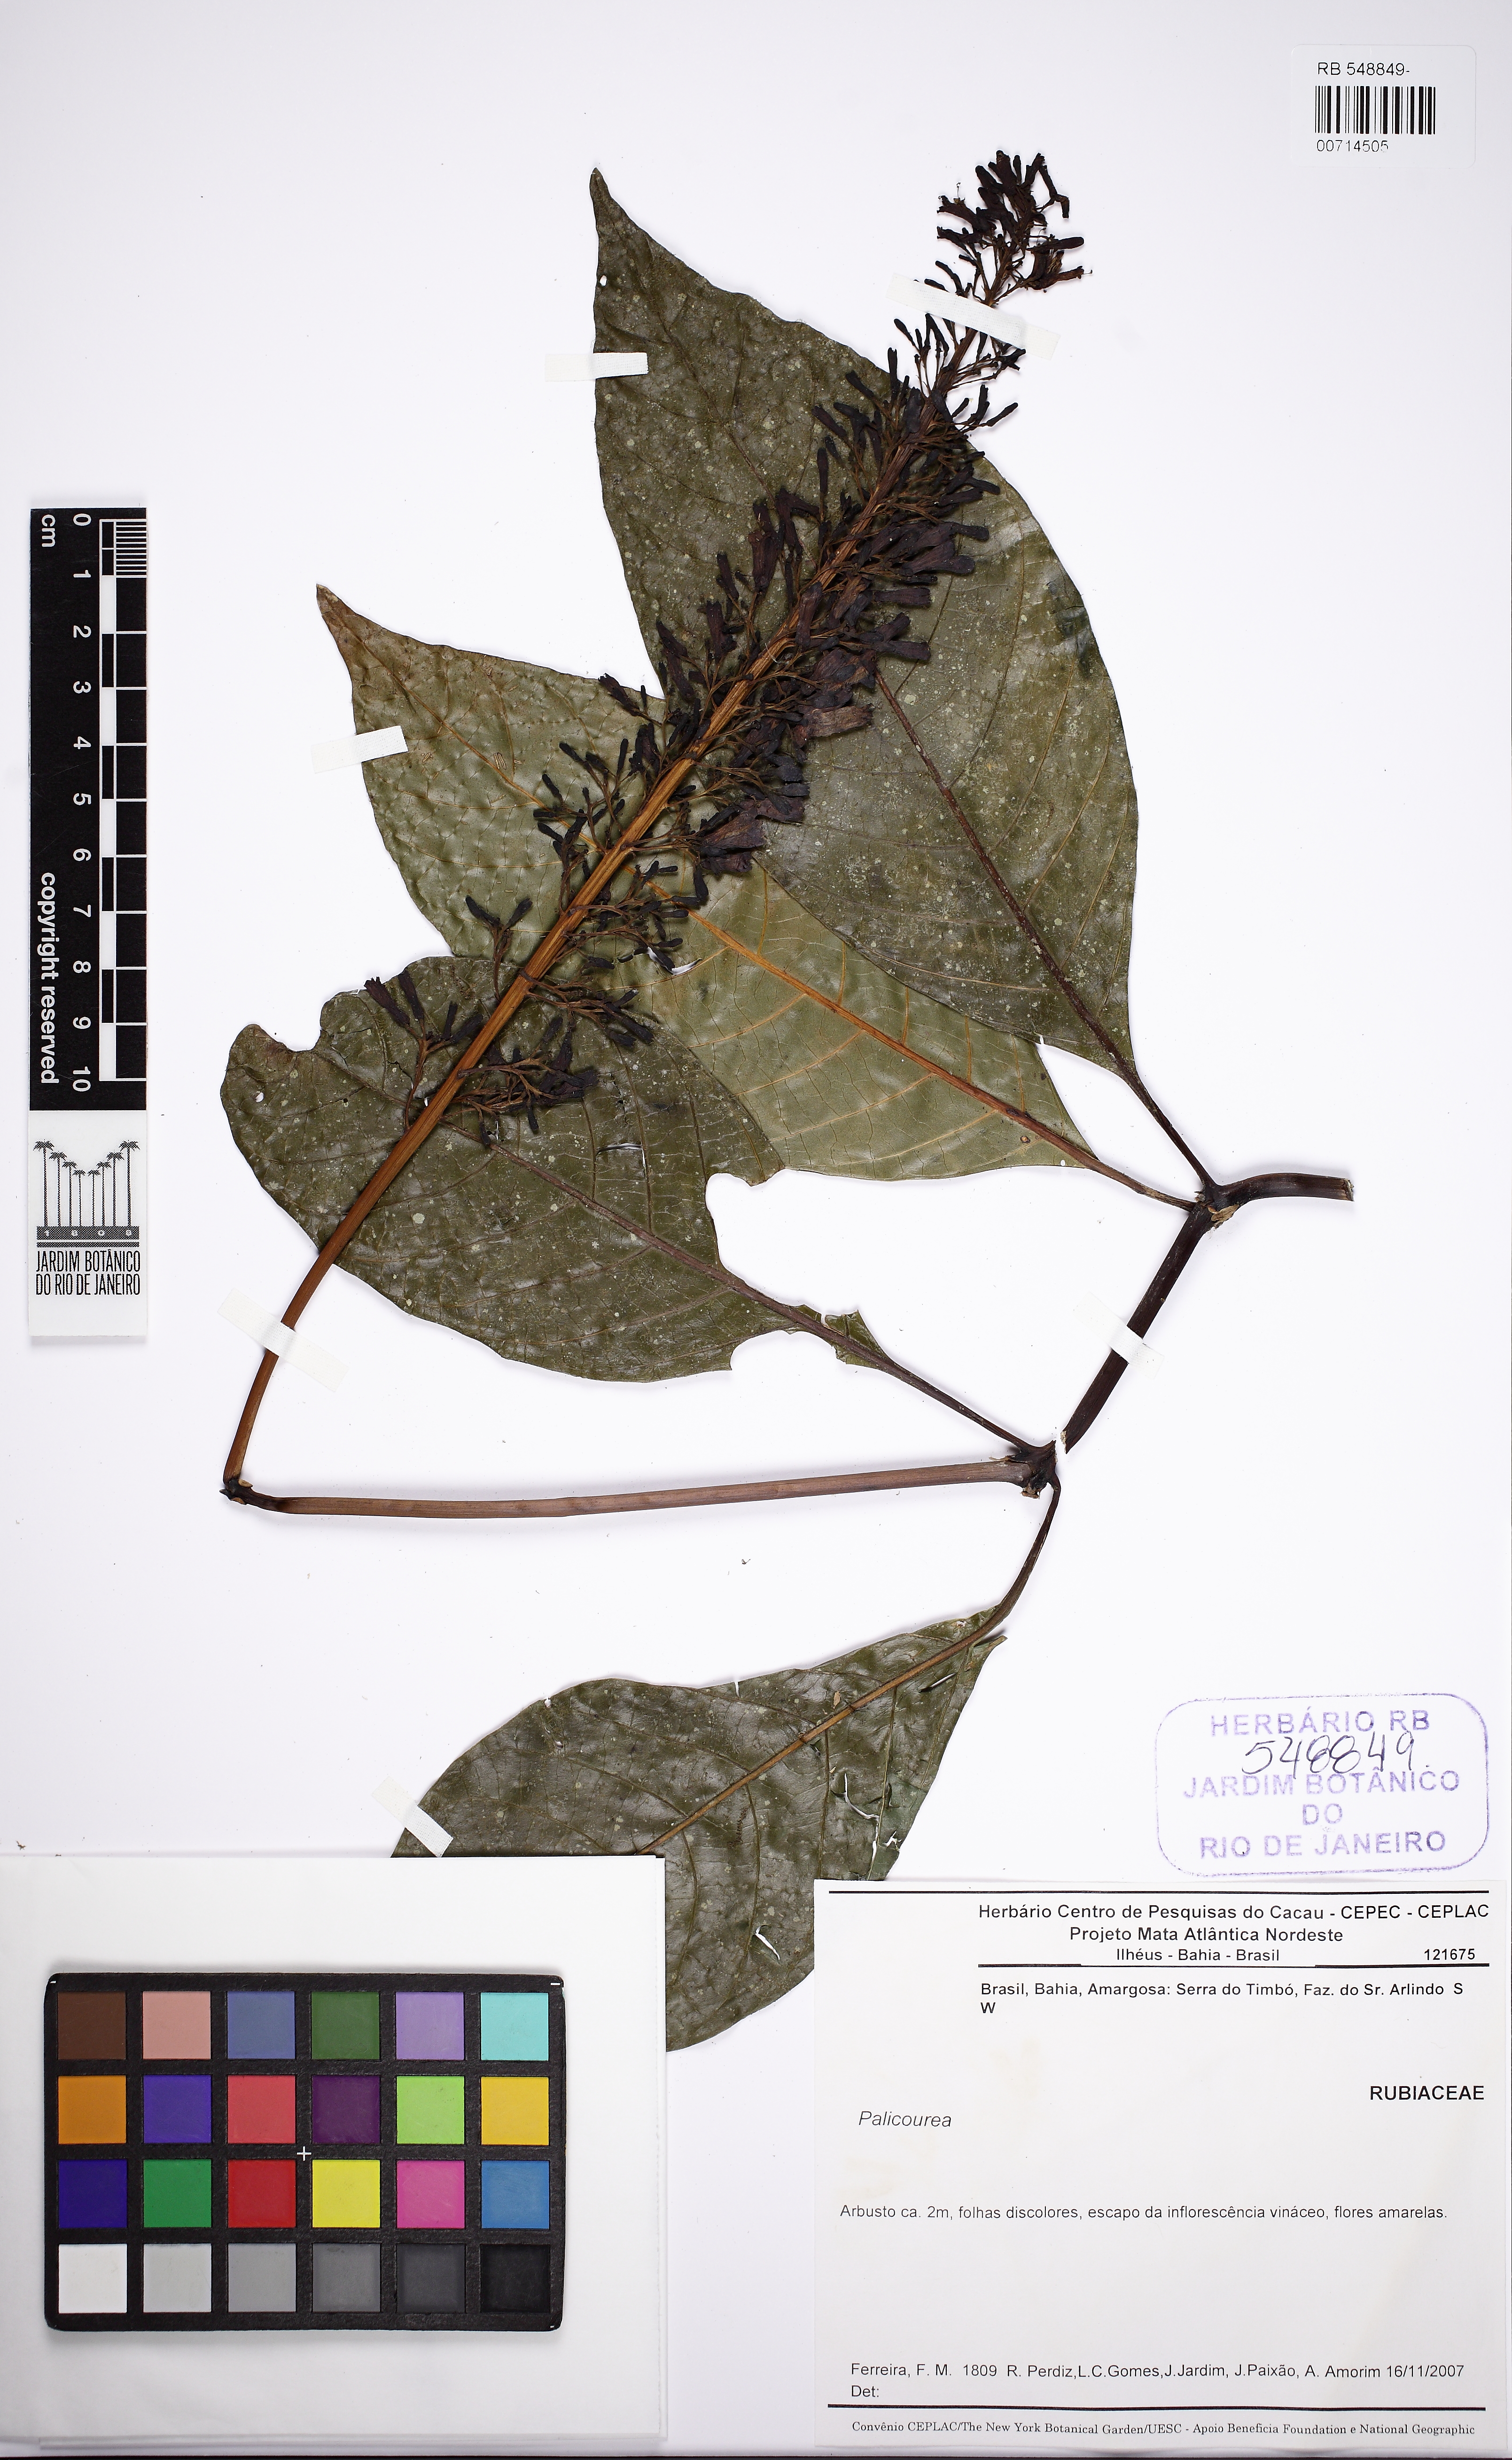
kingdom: Plantae
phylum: Tracheophyta
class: Magnoliopsida
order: Gentianales
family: Rubiaceae
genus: Palicourea
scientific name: Palicourea blanchetiana
